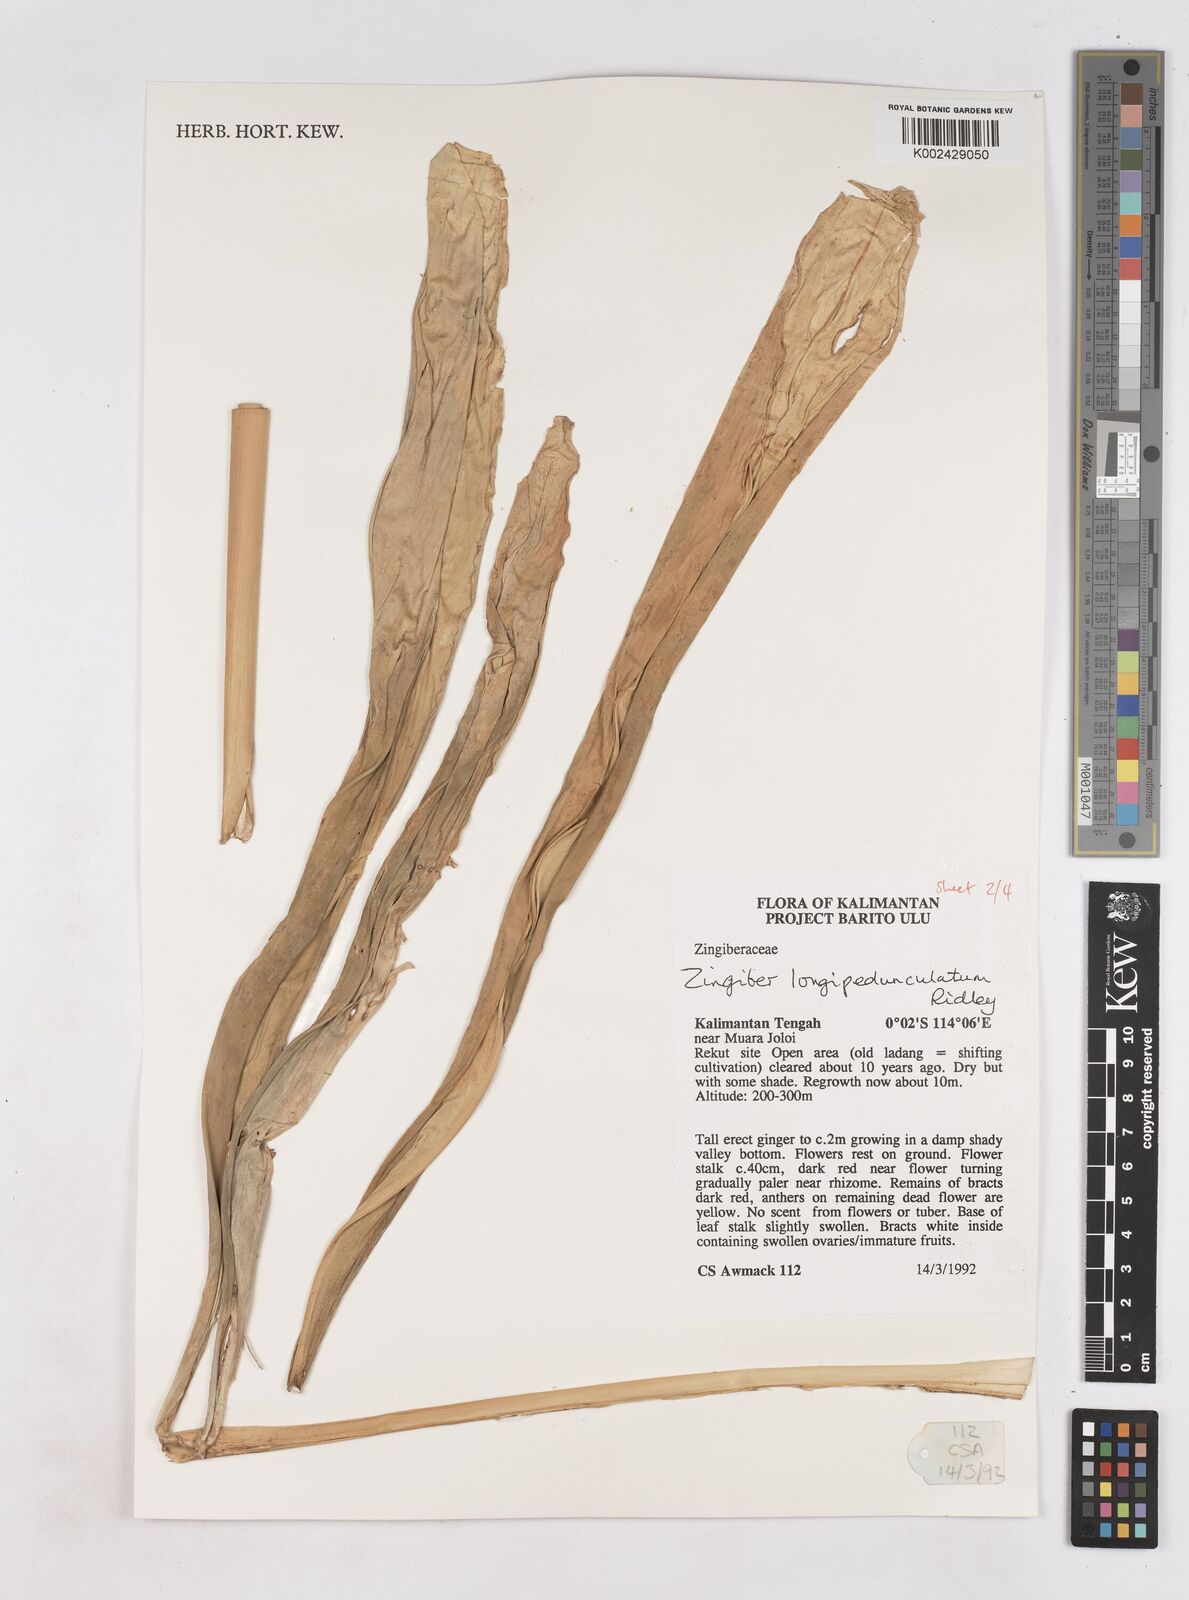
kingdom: Plantae
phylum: Tracheophyta
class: Liliopsida
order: Zingiberales
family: Zingiberaceae
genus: Zingiber
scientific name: Zingiber longipedunculatum
